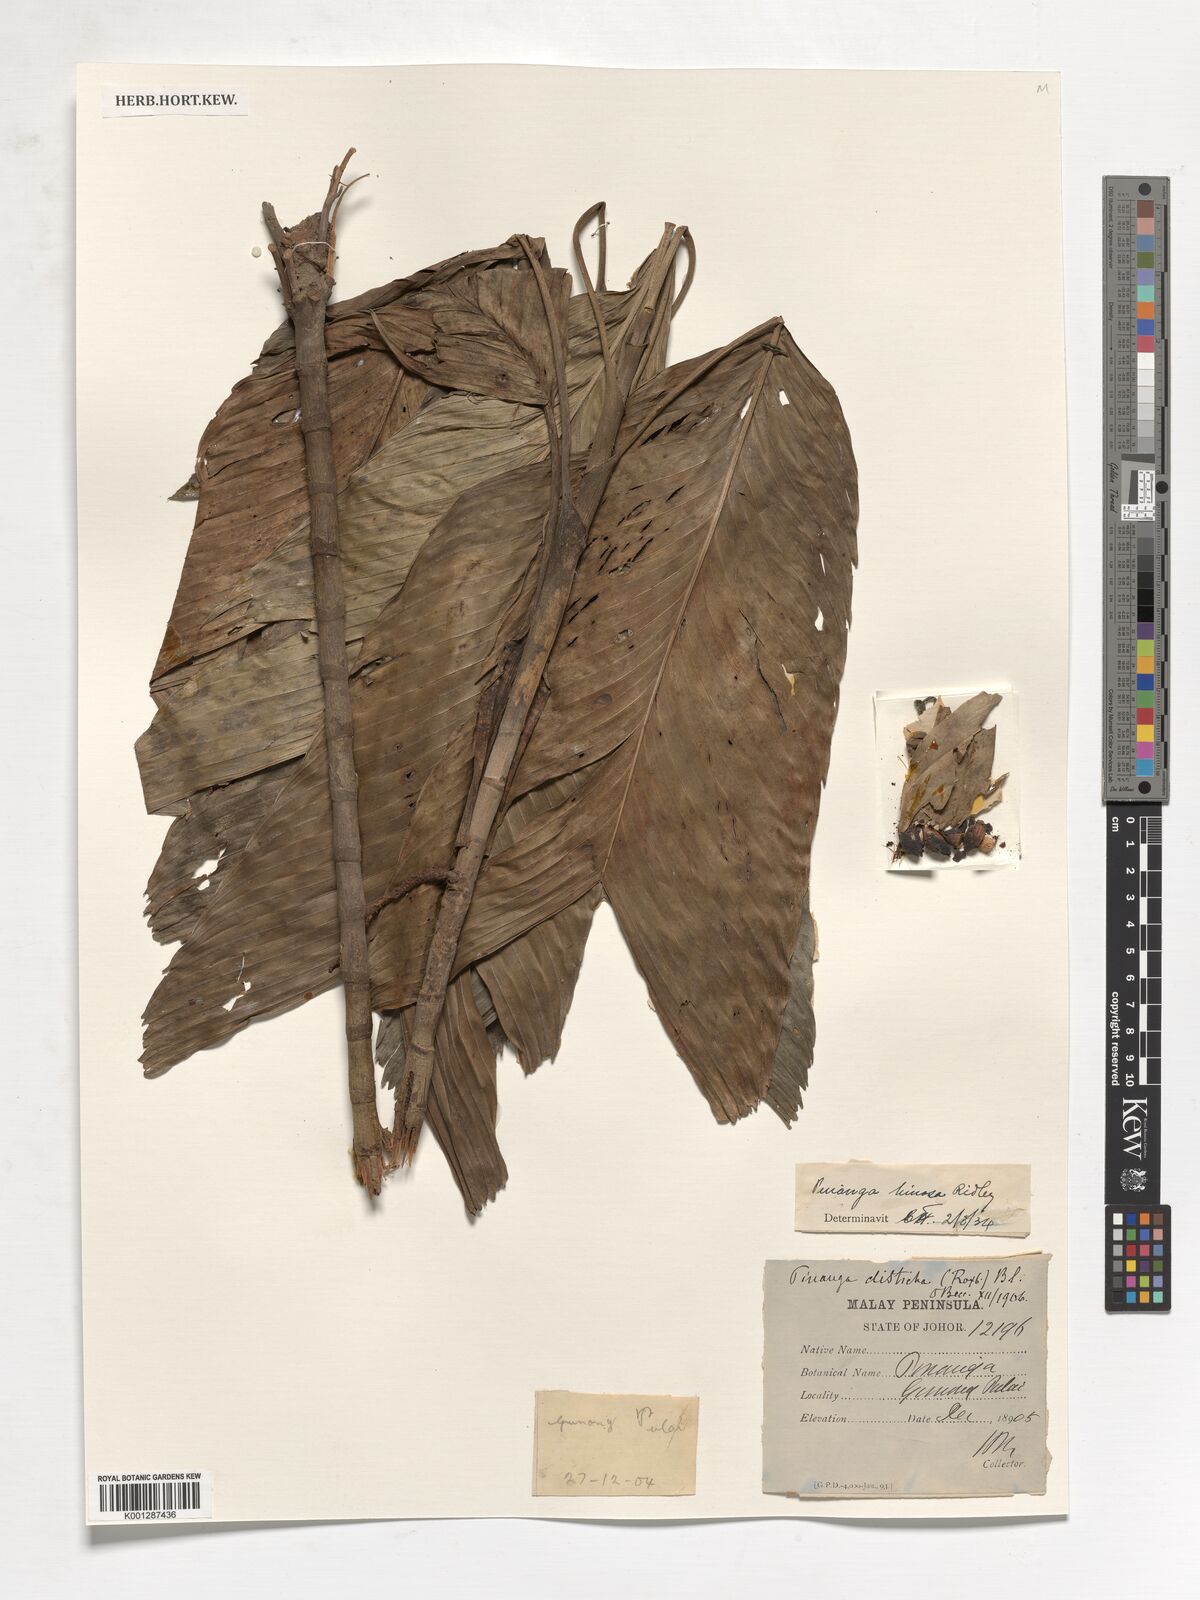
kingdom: Plantae
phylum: Tracheophyta
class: Liliopsida
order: Arecales
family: Arecaceae
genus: Pinanga
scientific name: Pinanga limosa
